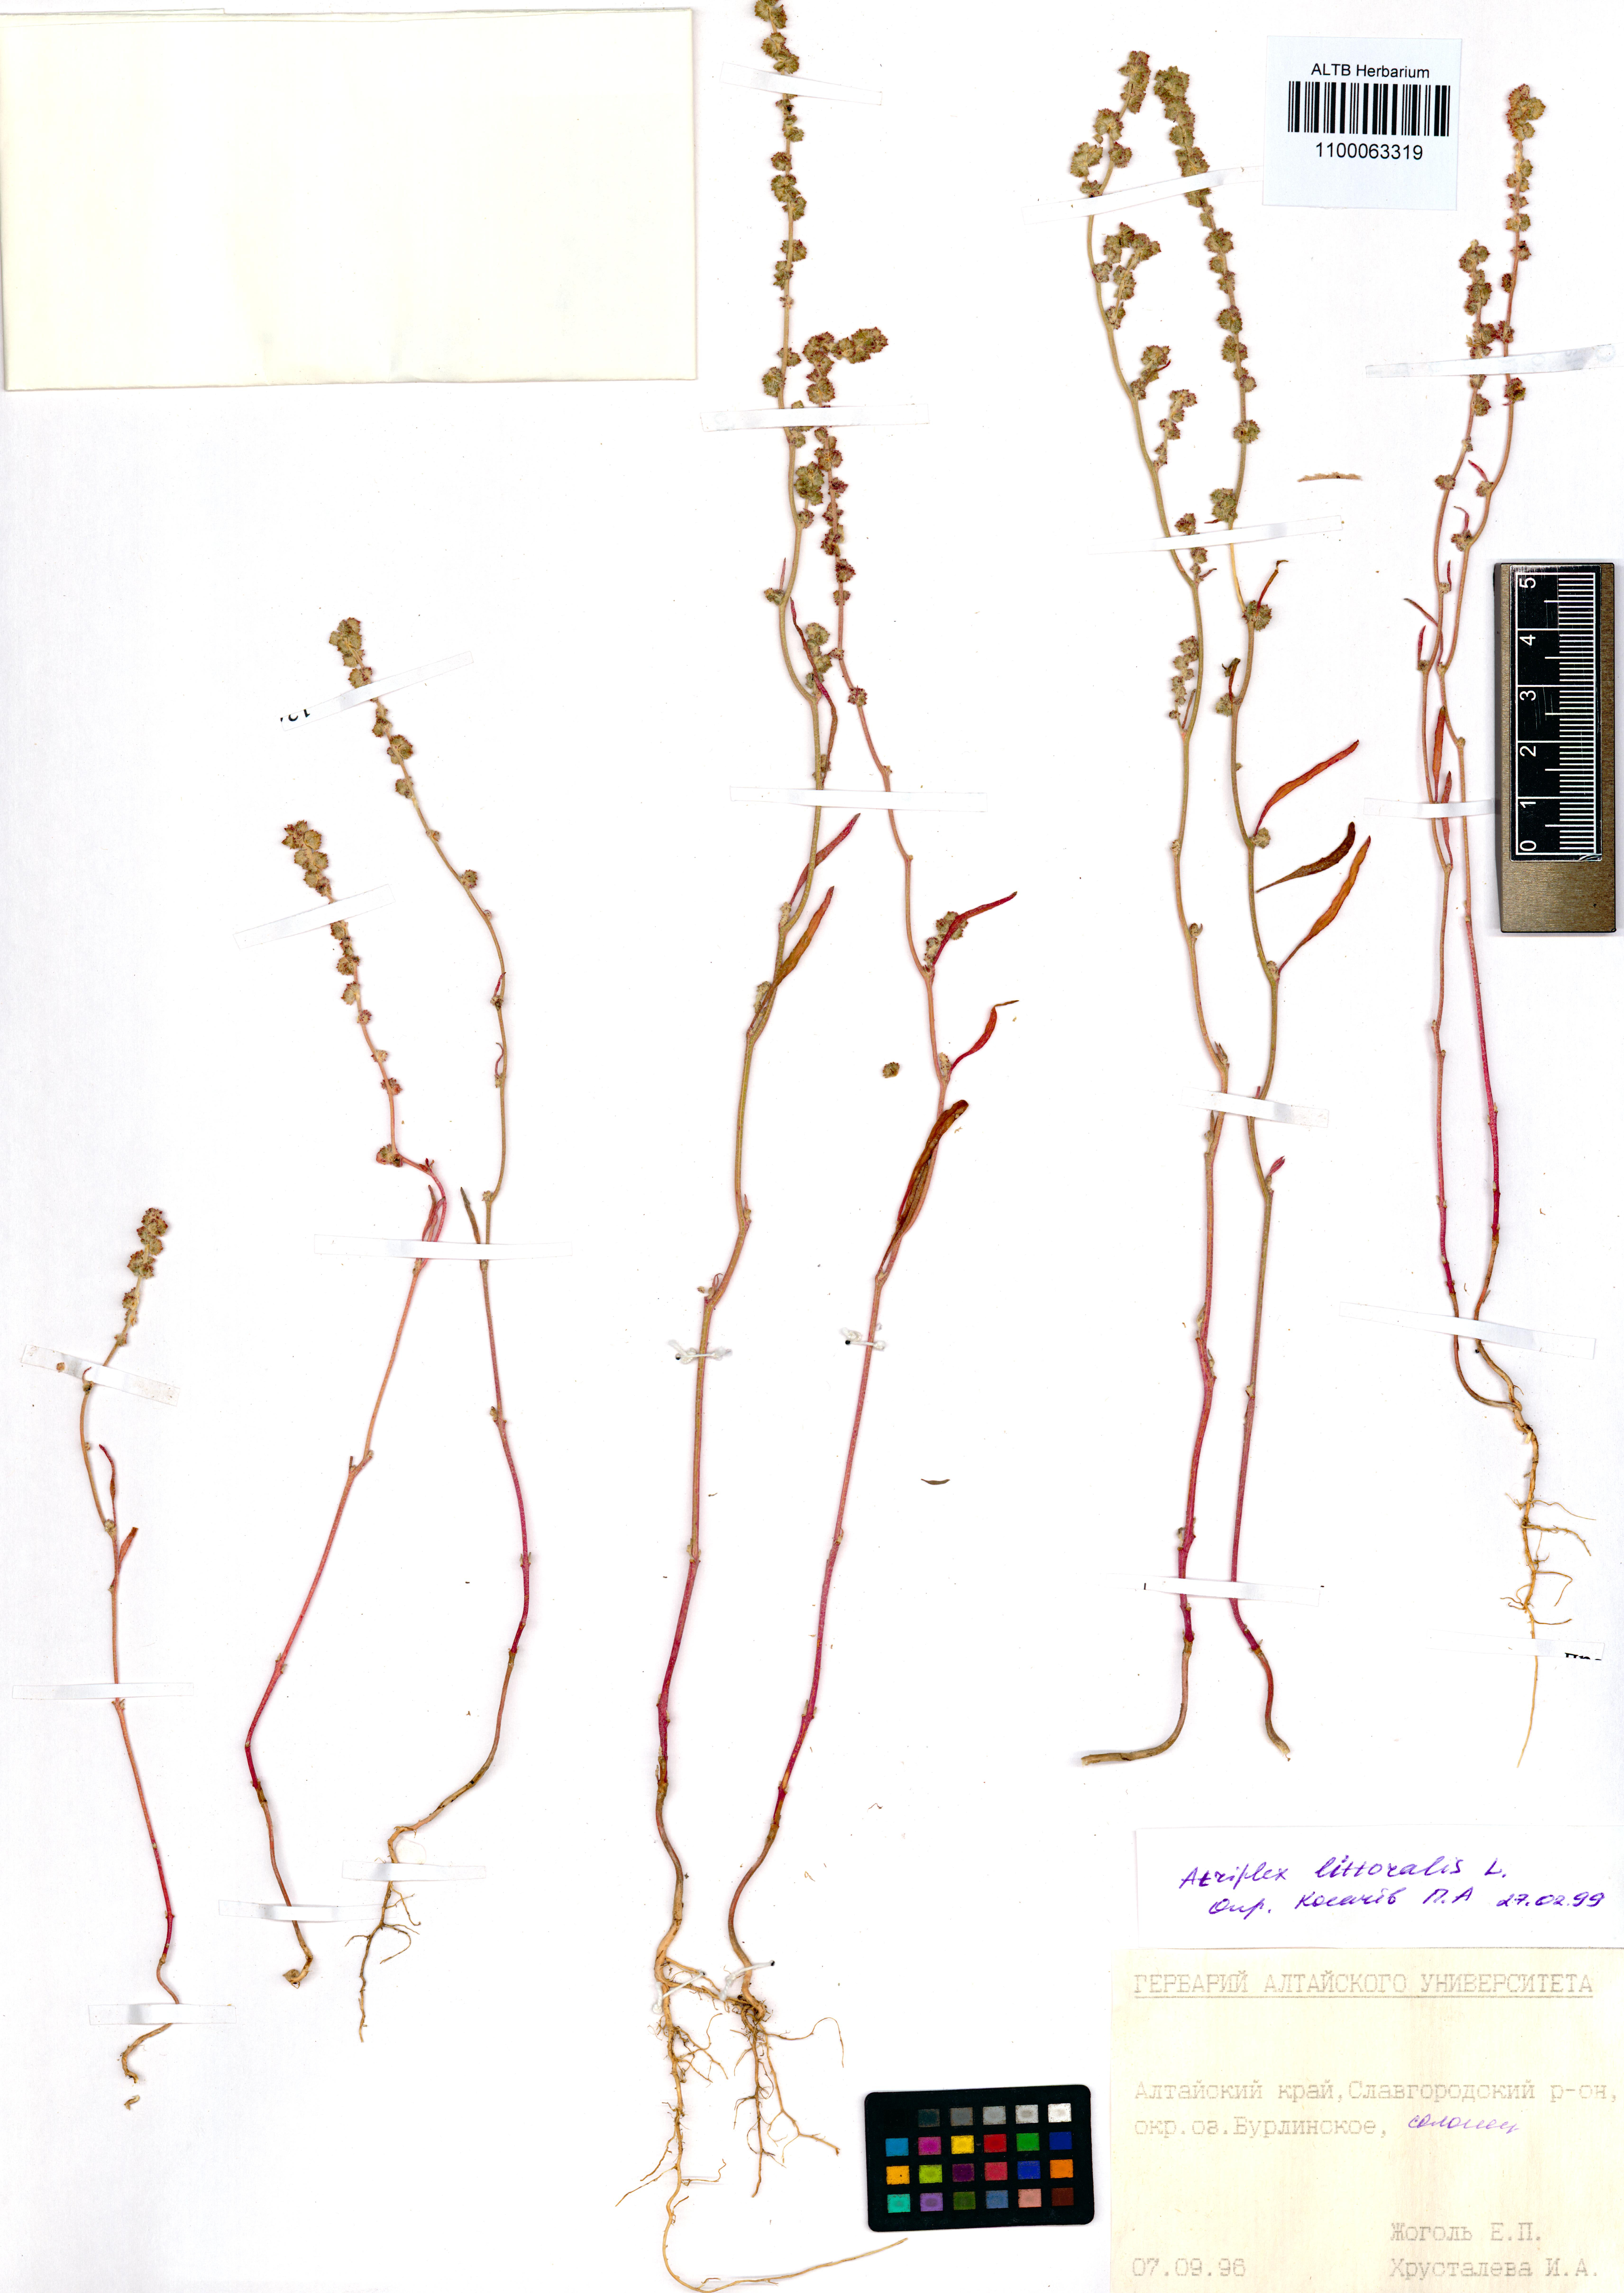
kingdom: Plantae
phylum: Tracheophyta
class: Magnoliopsida
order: Caryophyllales
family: Amaranthaceae
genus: Atriplex
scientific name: Atriplex littoralis
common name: Grass-leaved orache
